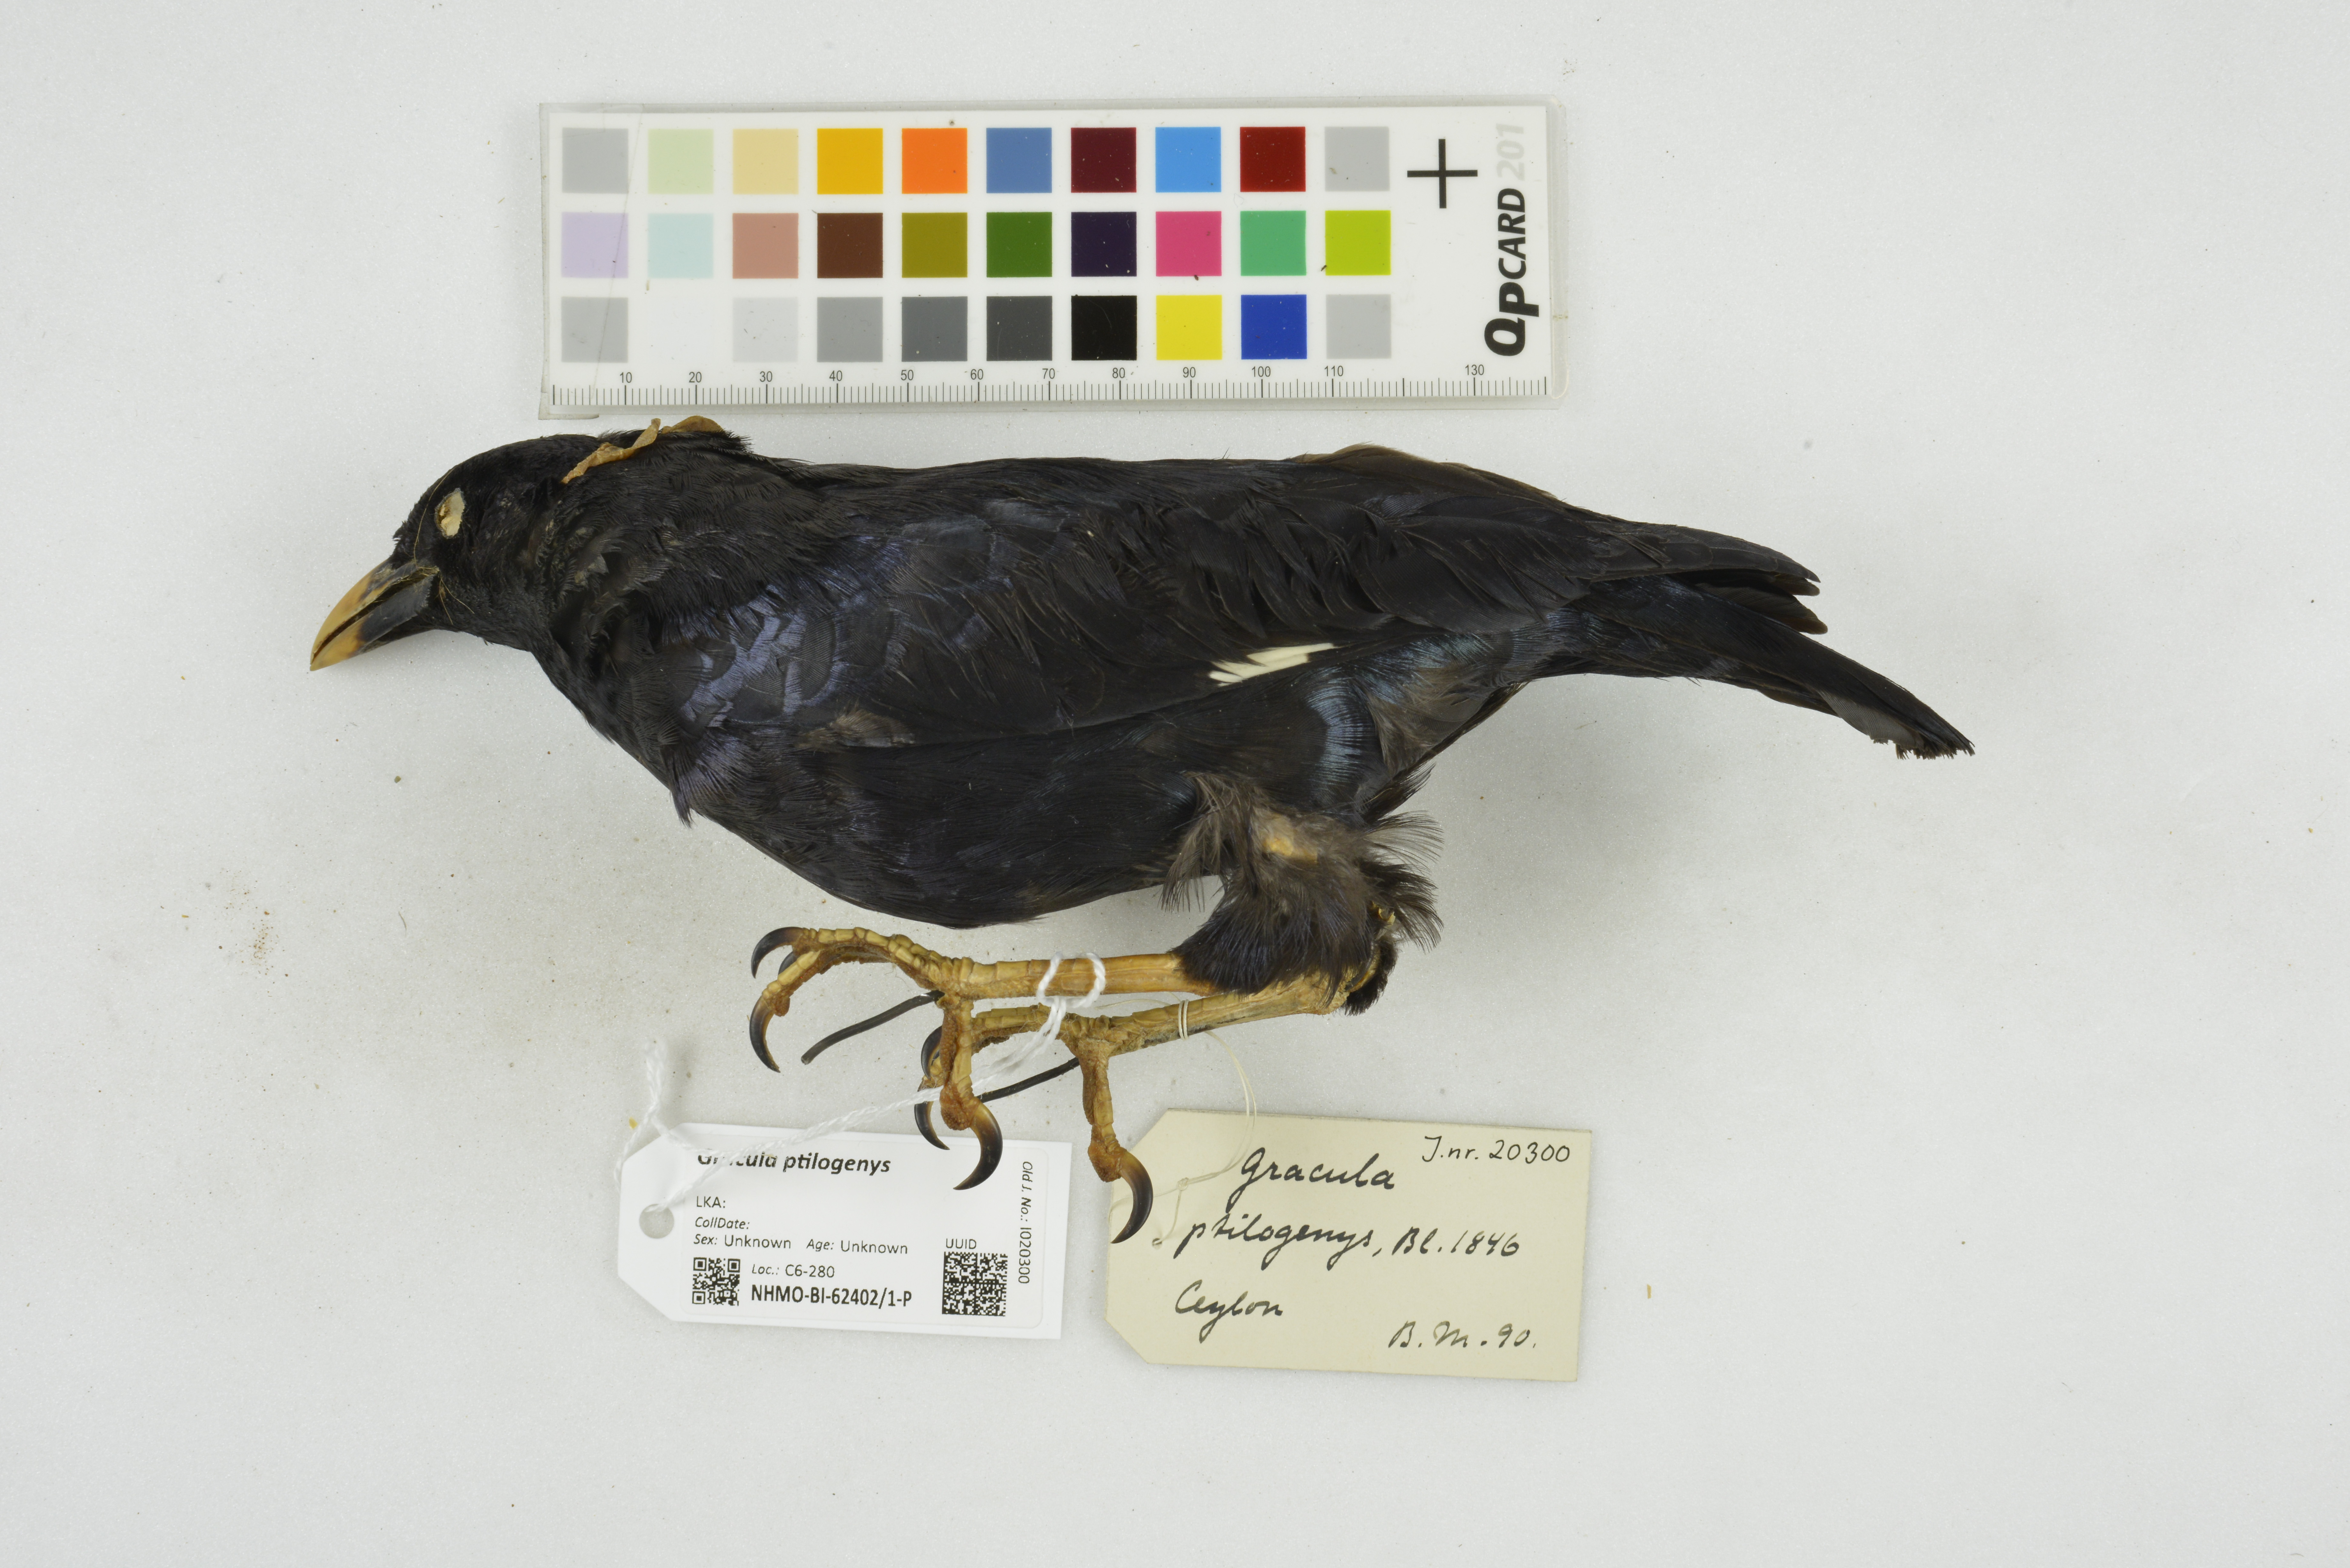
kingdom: Animalia
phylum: Chordata
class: Aves
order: Passeriformes
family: Sturnidae
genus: Gracula
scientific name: Gracula ptilogenys
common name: Sri lanka hill myna
